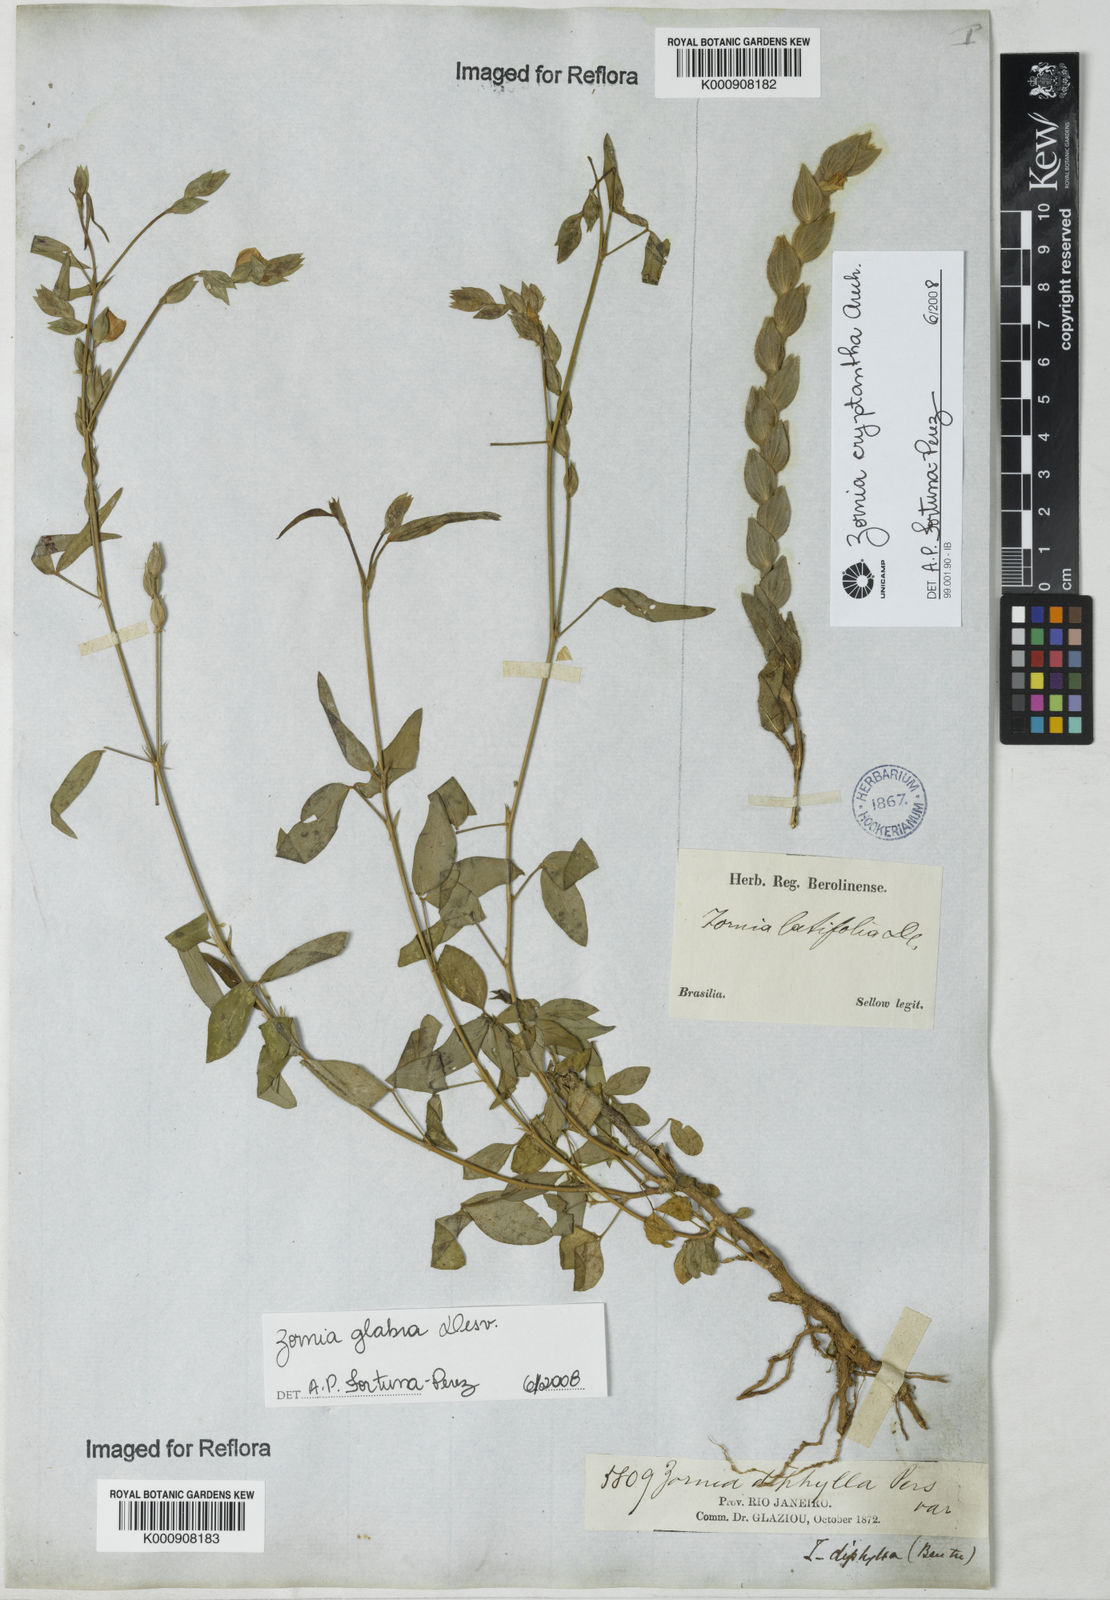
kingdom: Plantae
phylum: Tracheophyta
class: Magnoliopsida
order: Fabales
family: Fabaceae
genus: Zornia
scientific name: Zornia glabra
